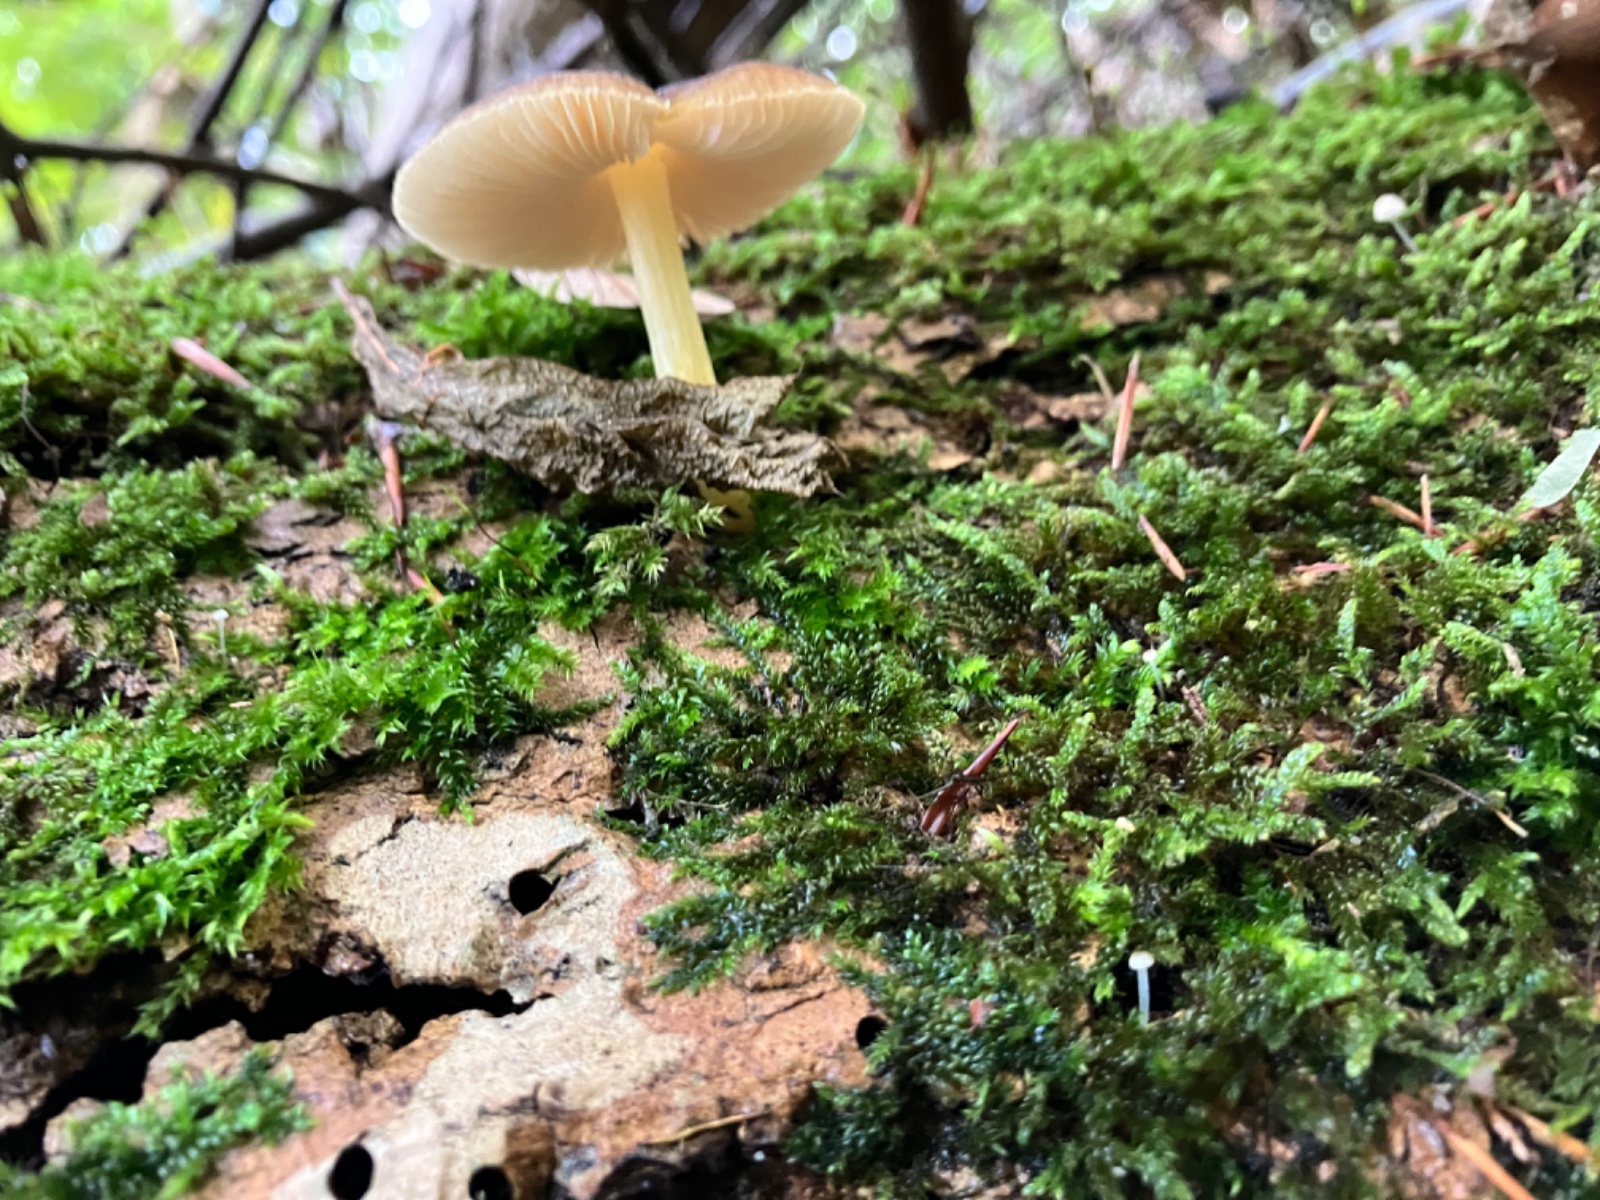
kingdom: Fungi
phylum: Basidiomycota
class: Agaricomycetes
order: Agaricales
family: Pluteaceae
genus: Pluteus
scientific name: Pluteus romellii
